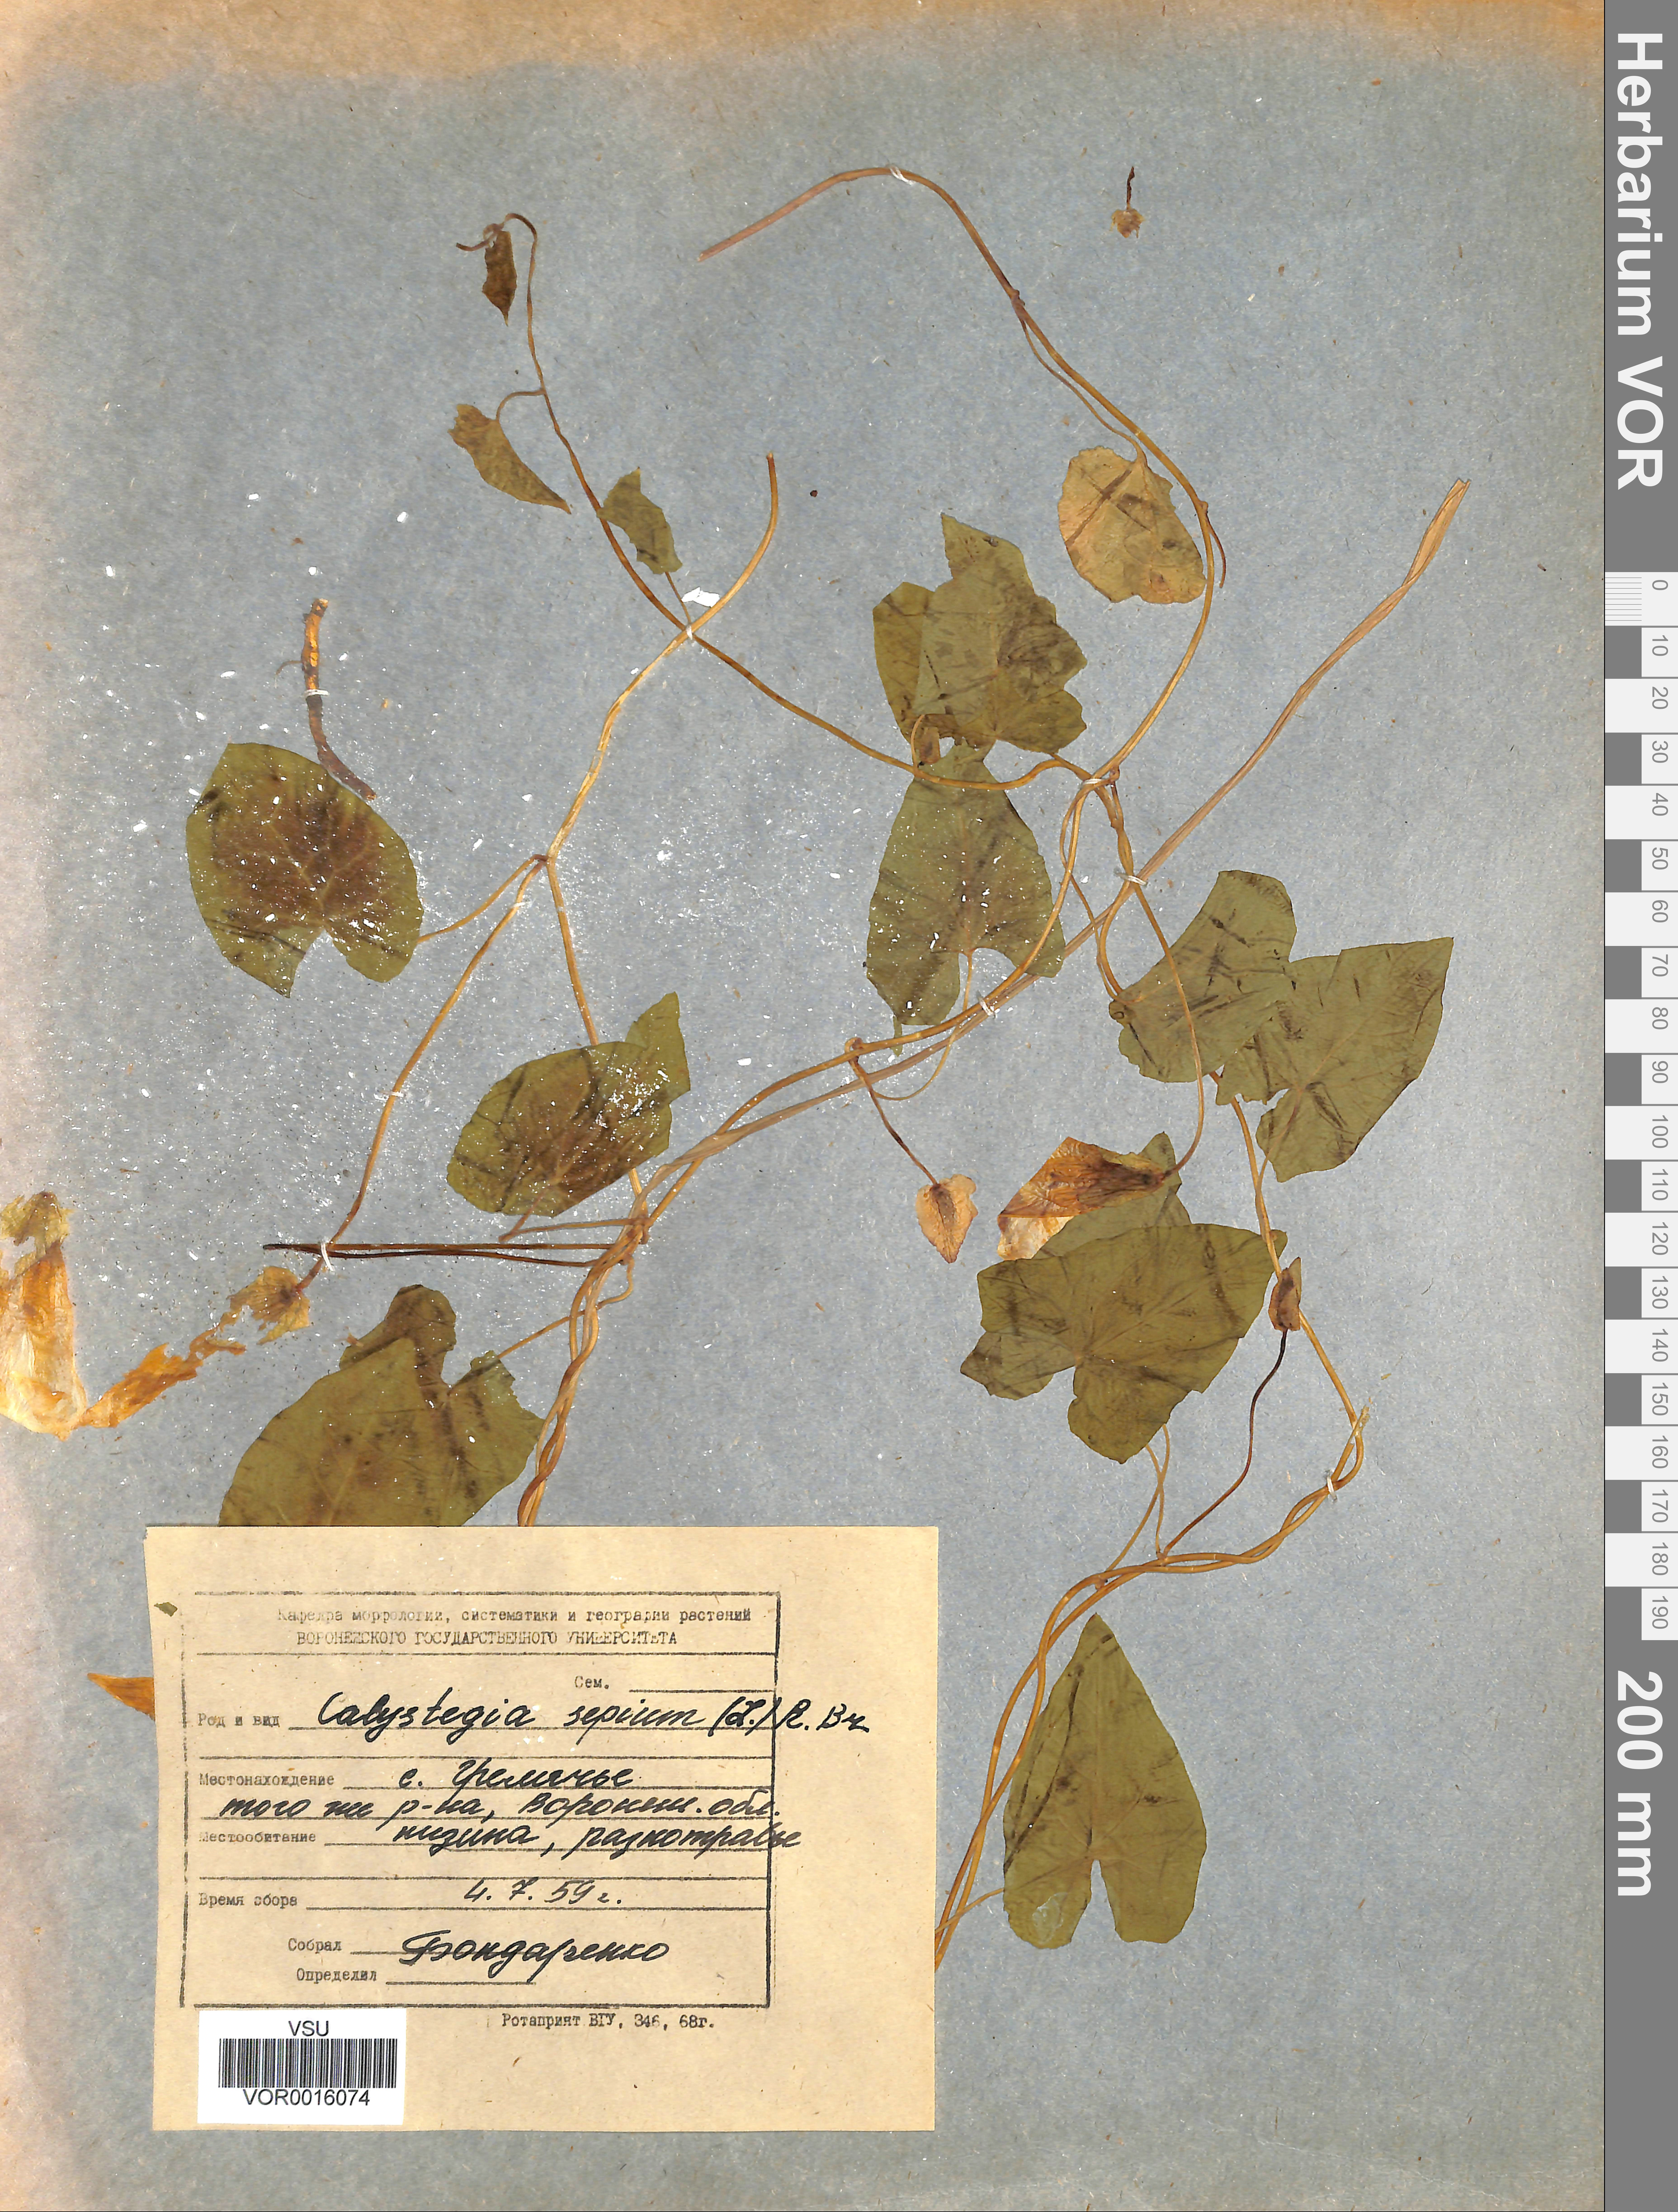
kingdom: Plantae
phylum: Tracheophyta
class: Magnoliopsida
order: Solanales
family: Convolvulaceae
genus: Calystegia
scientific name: Calystegia sepium
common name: Hedge bindweed
